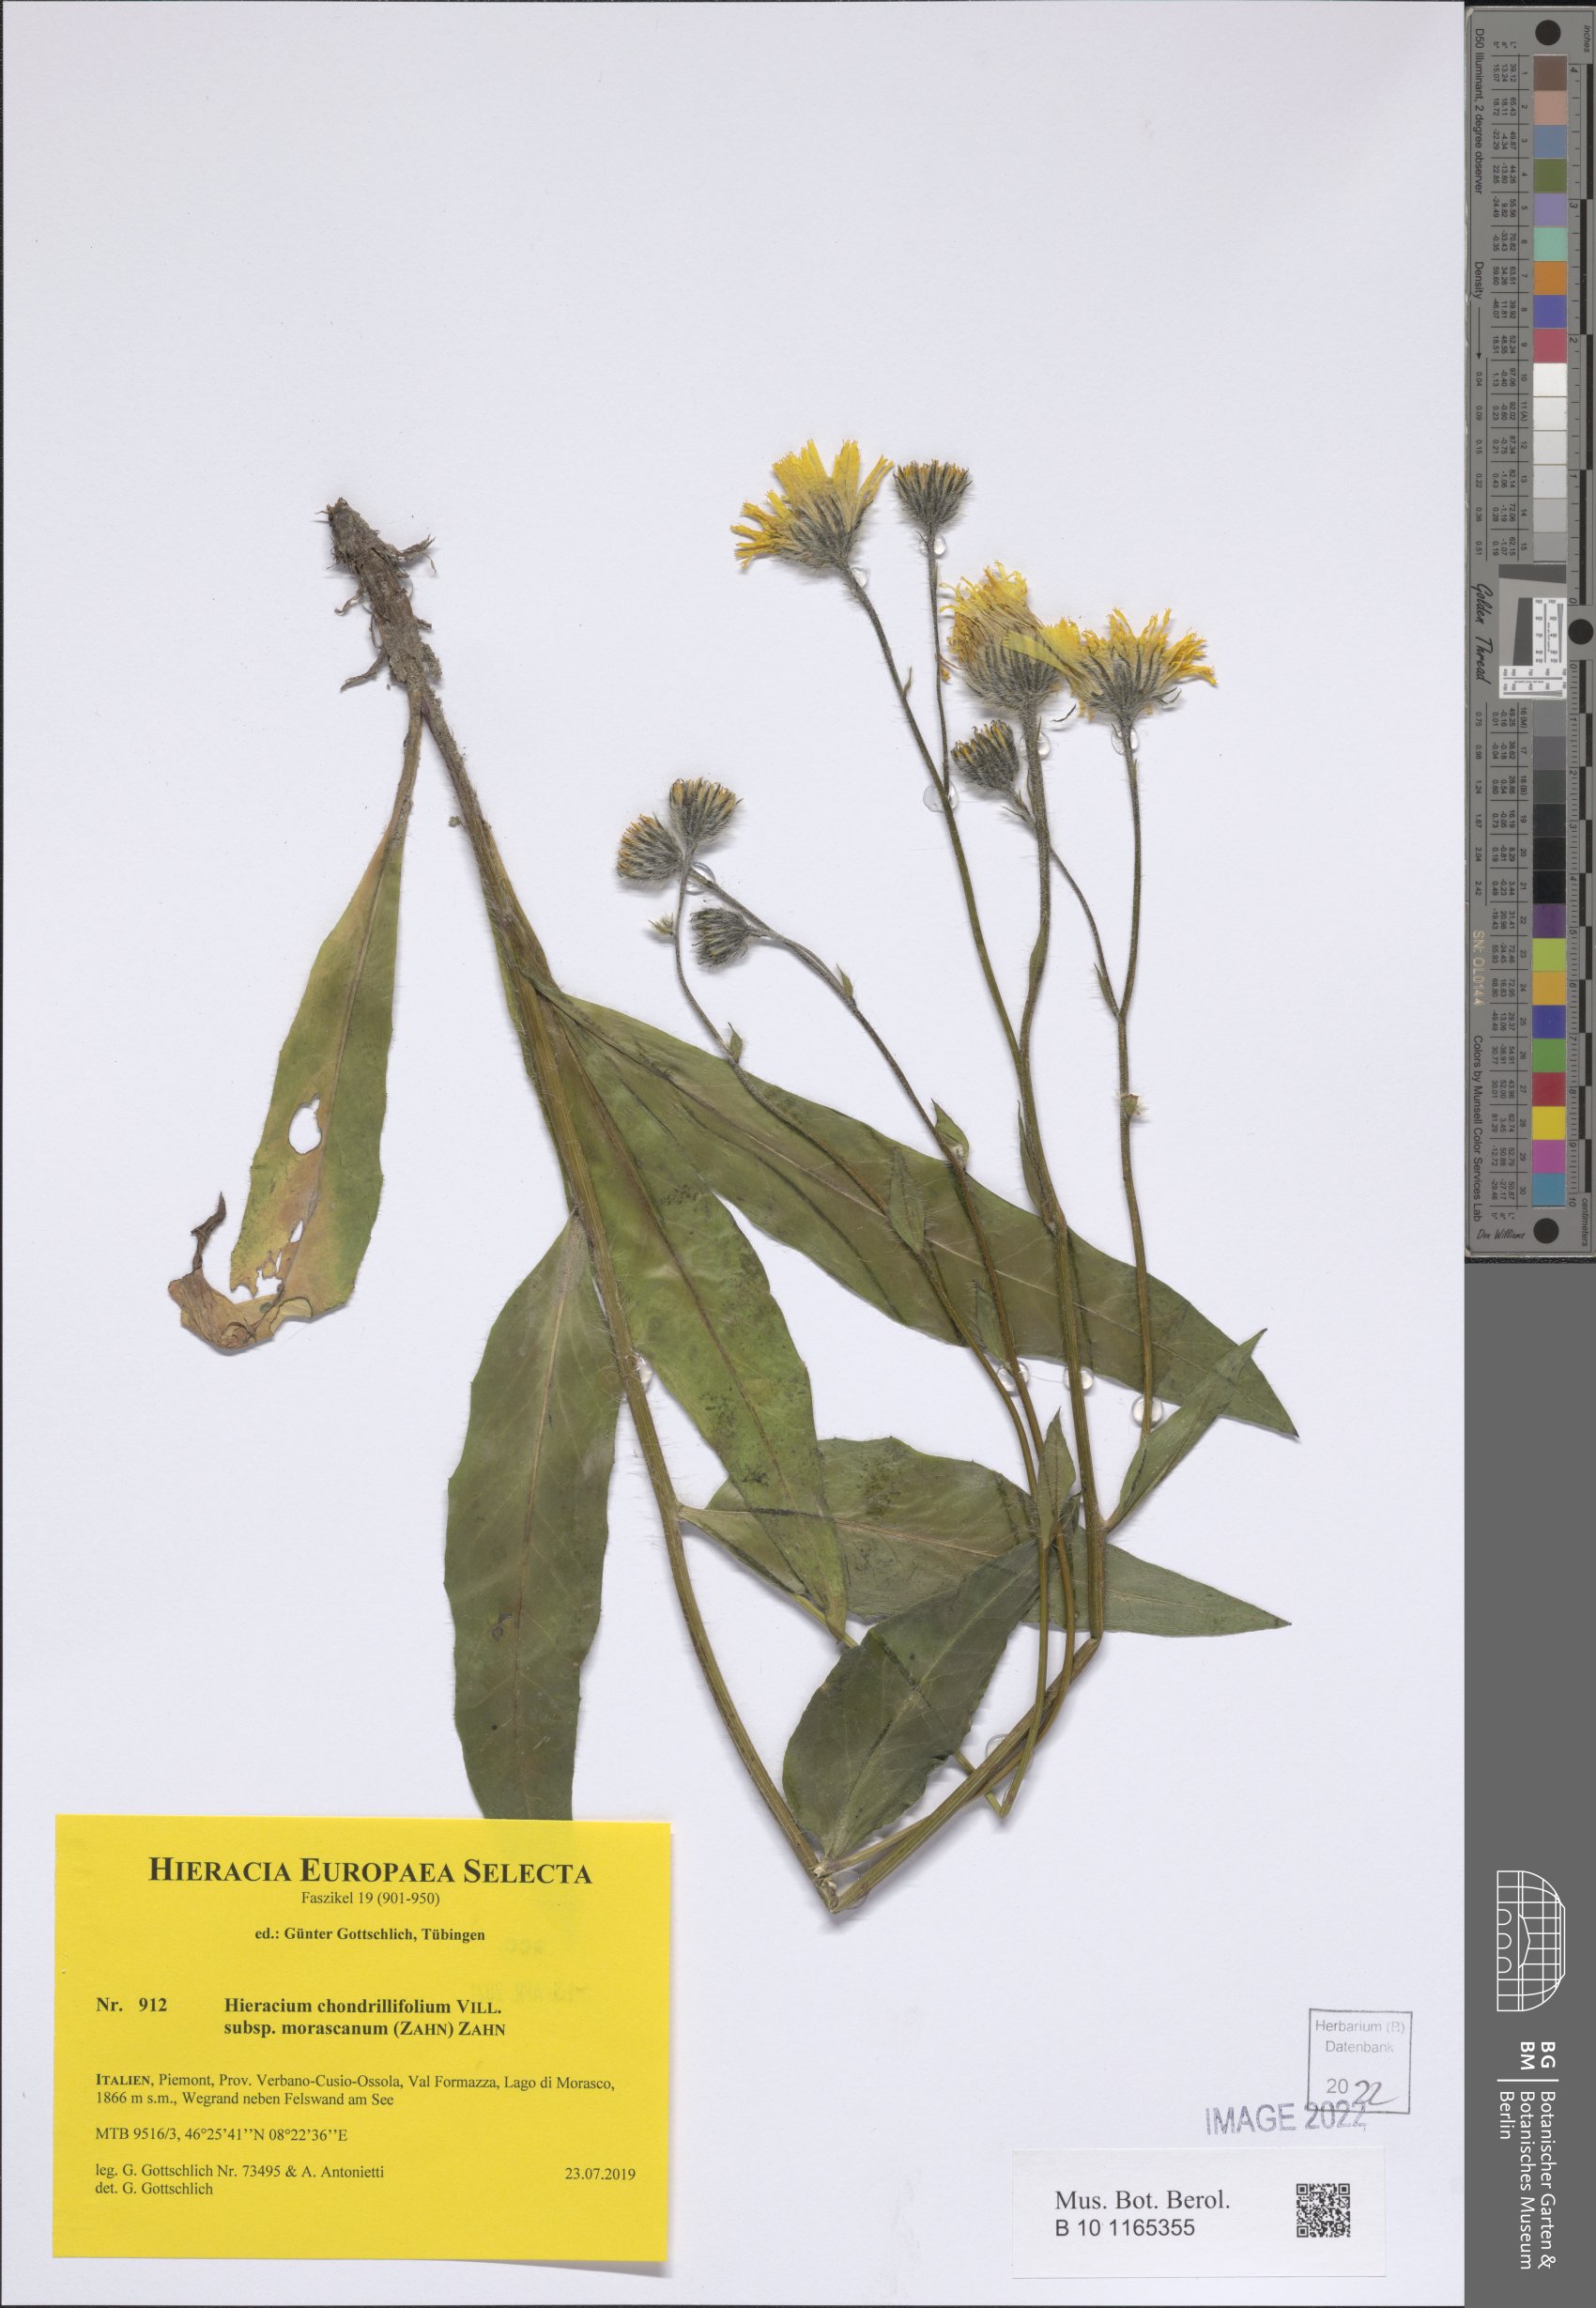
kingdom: Plantae
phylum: Tracheophyta
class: Magnoliopsida
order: Asterales
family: Asteraceae
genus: Hieracium
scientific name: Hieracium chondrillifolium
